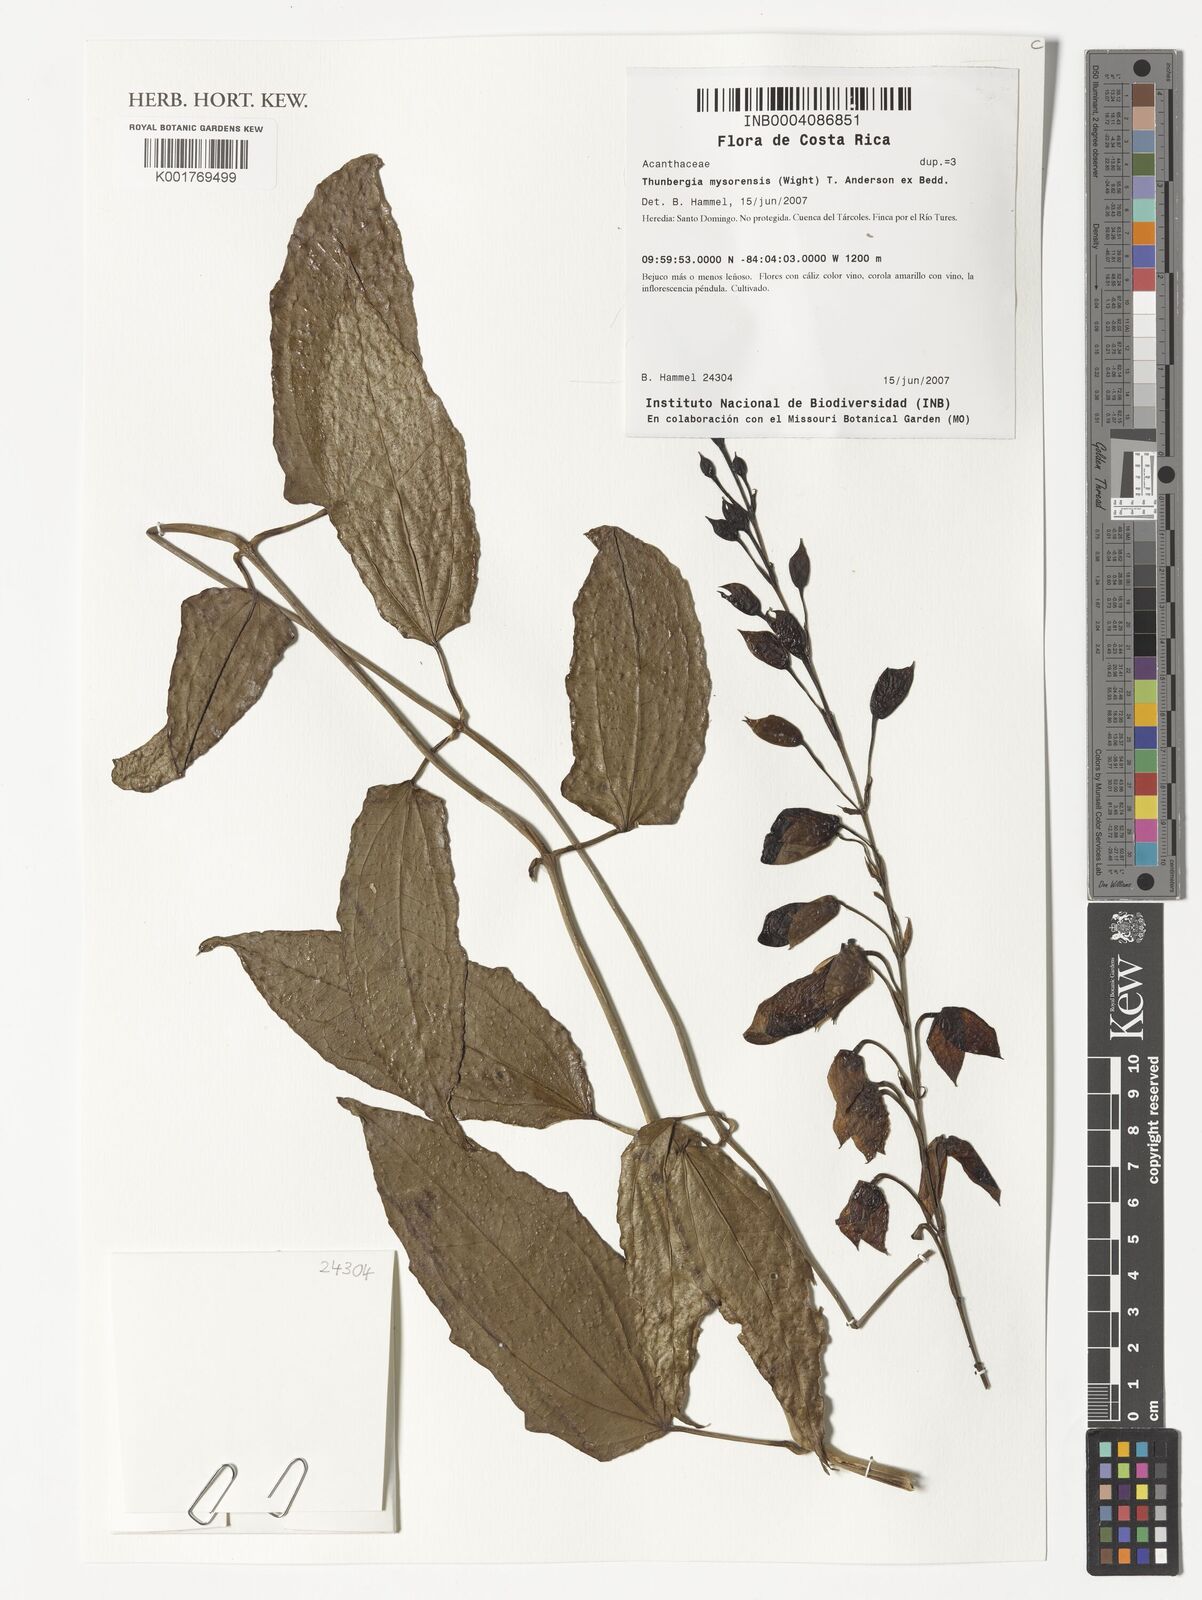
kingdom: Plantae
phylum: Tracheophyta
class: Magnoliopsida
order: Lamiales
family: Acanthaceae
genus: Thunbergia
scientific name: Thunbergia mysorensis
